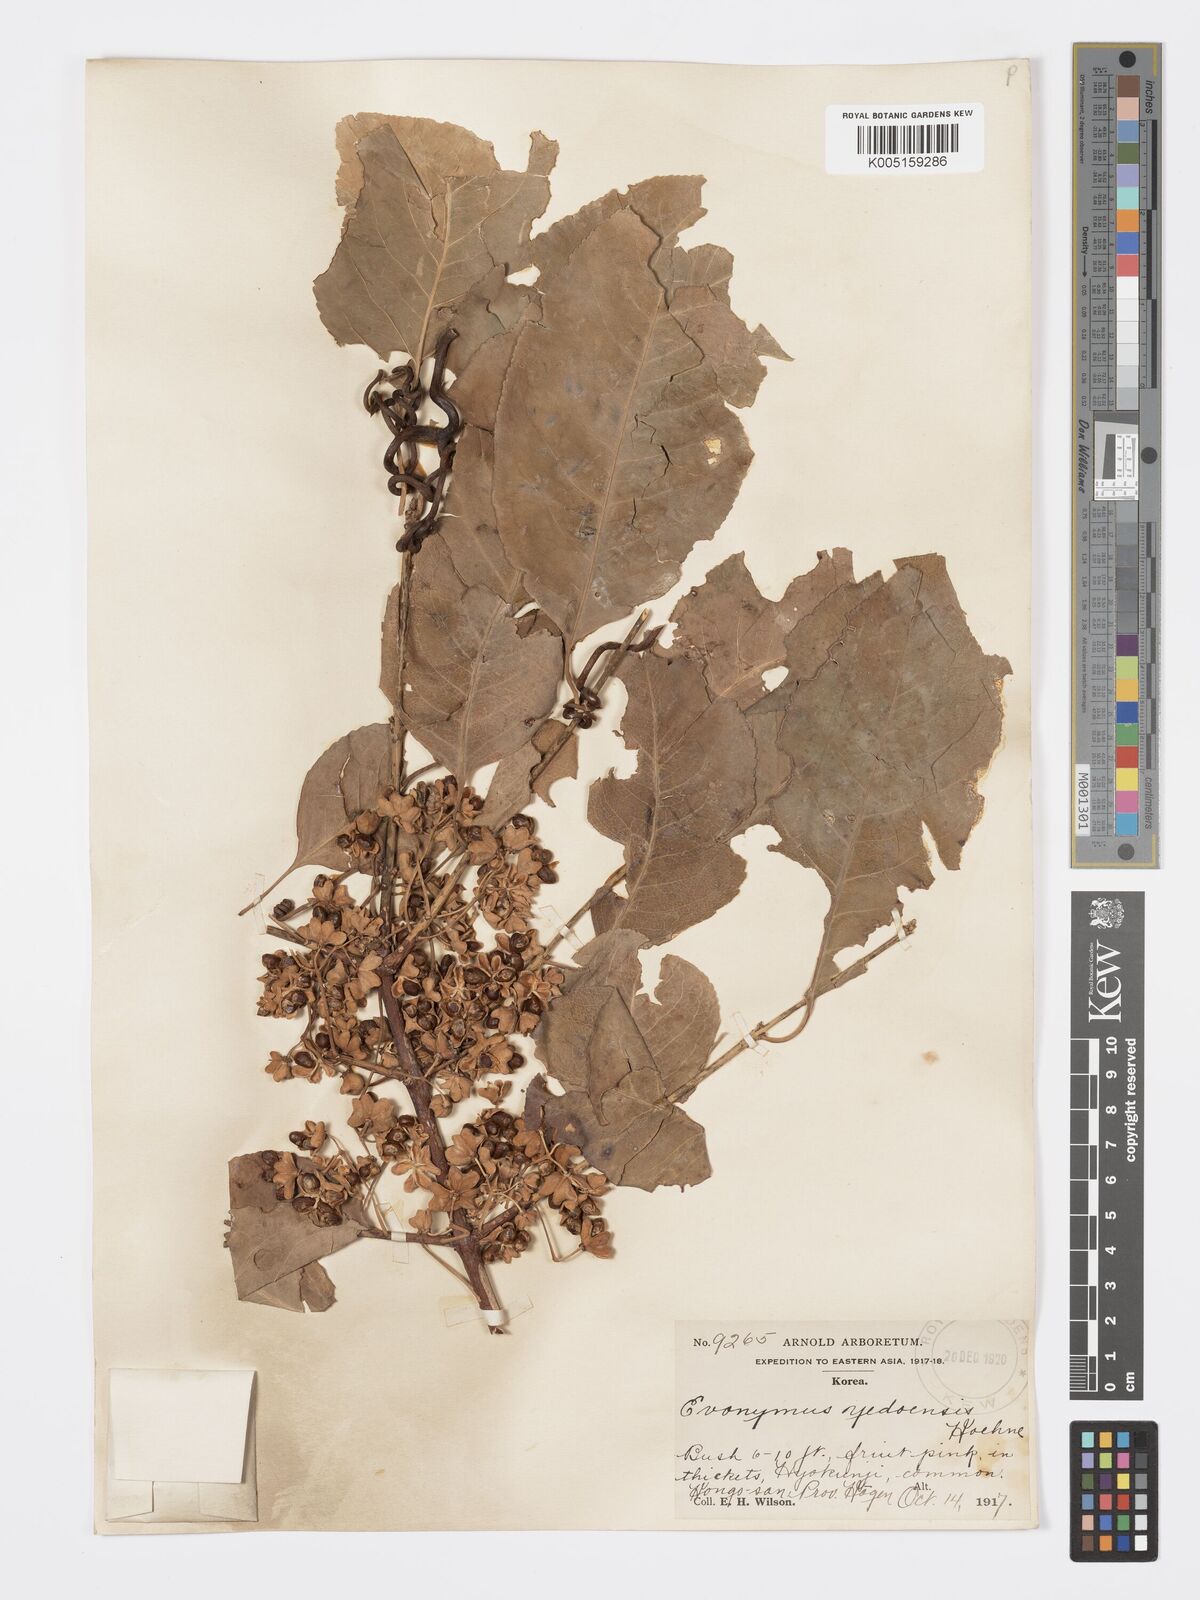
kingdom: Plantae
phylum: Tracheophyta
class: Magnoliopsida
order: Celastrales
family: Celastraceae
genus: Euonymus
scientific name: Euonymus hamiltonianus
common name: Hamilton's spindletree
